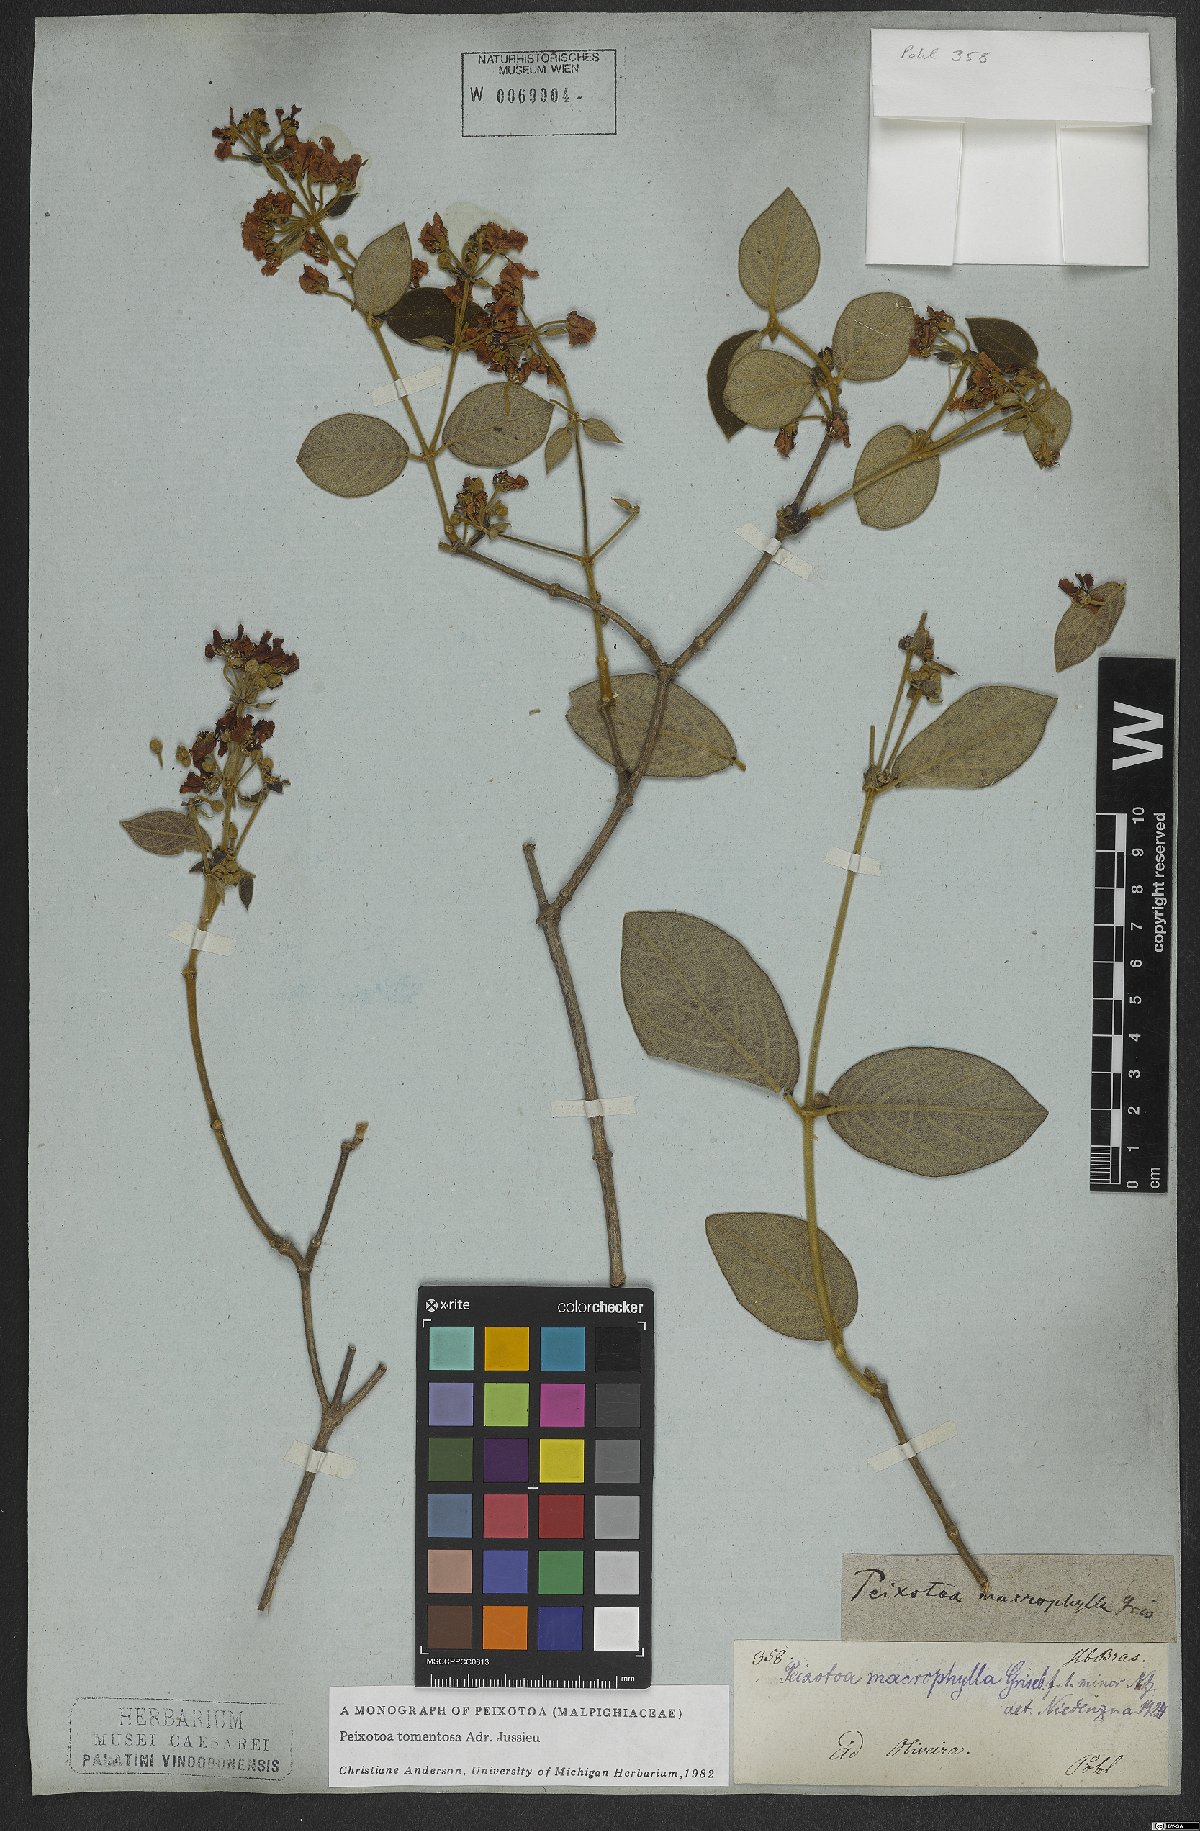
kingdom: Plantae
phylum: Tracheophyta
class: Magnoliopsida
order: Malpighiales
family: Malpighiaceae
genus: Peixotoa
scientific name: Peixotoa tomentosa
